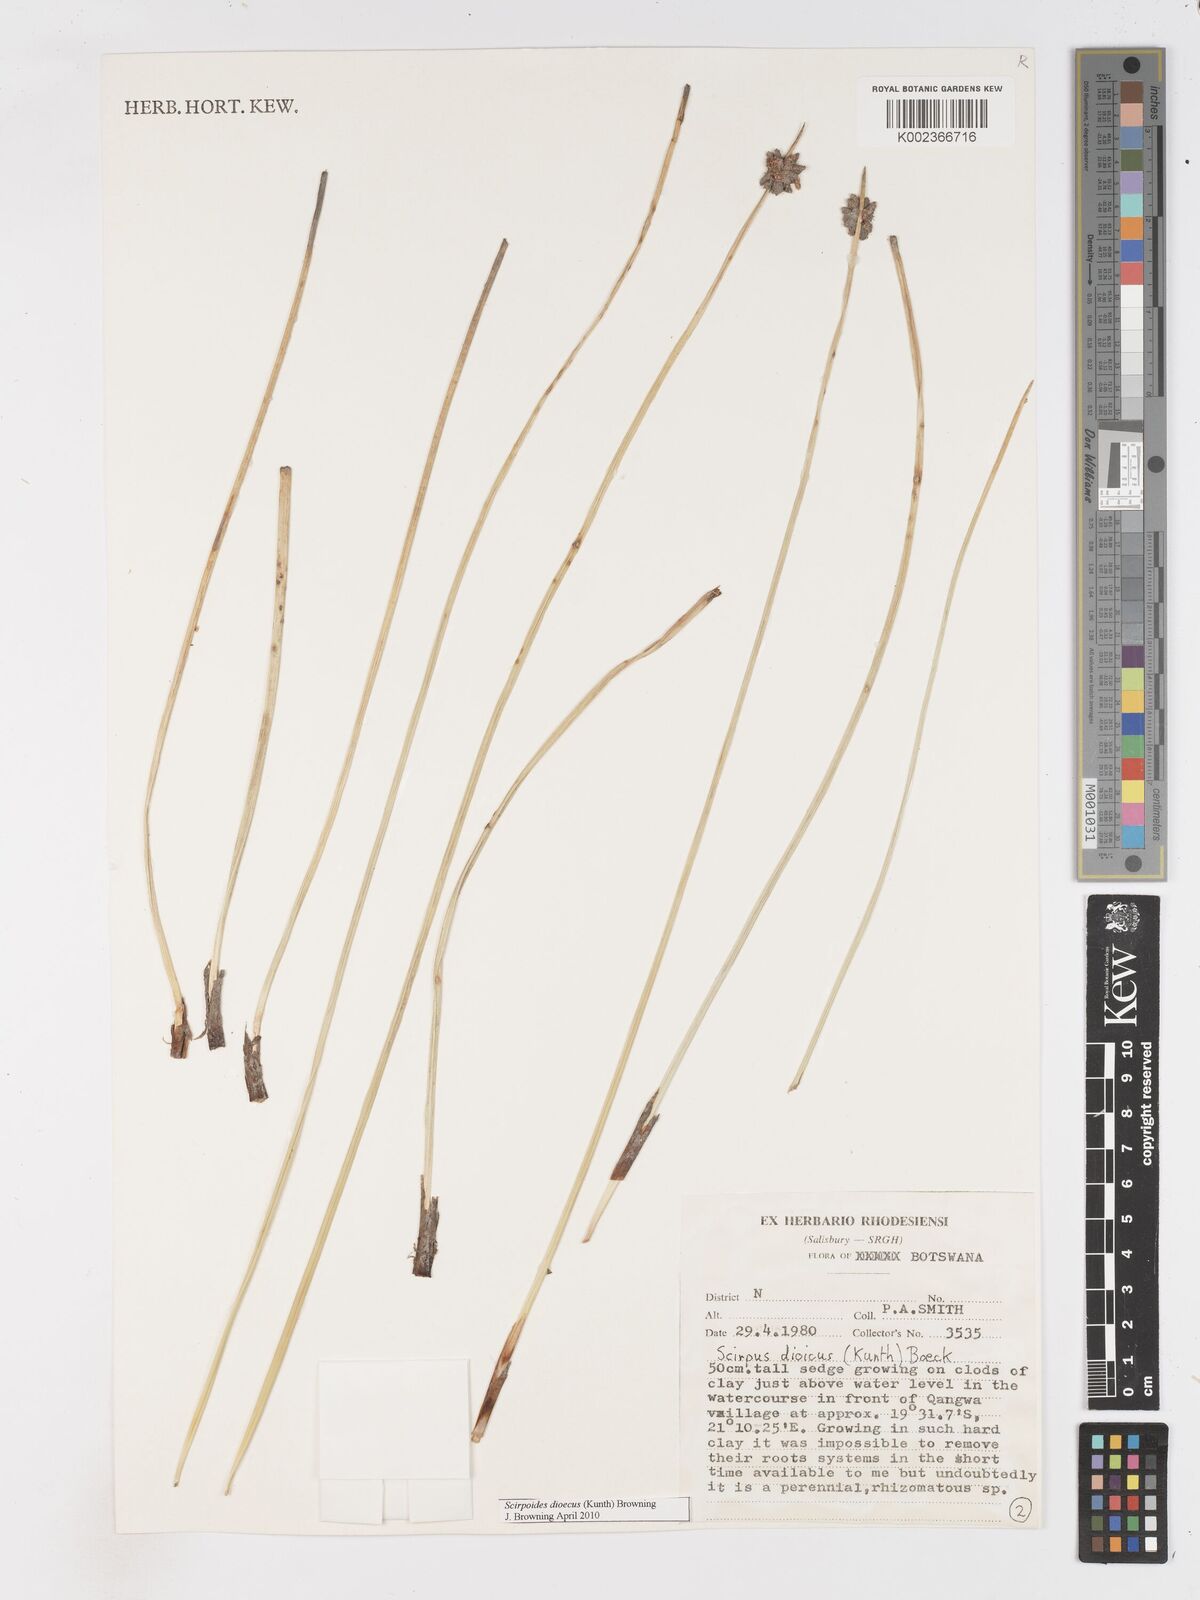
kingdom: Plantae
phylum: Tracheophyta
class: Liliopsida
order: Poales
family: Cyperaceae
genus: Scirpoides
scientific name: Scirpoides
